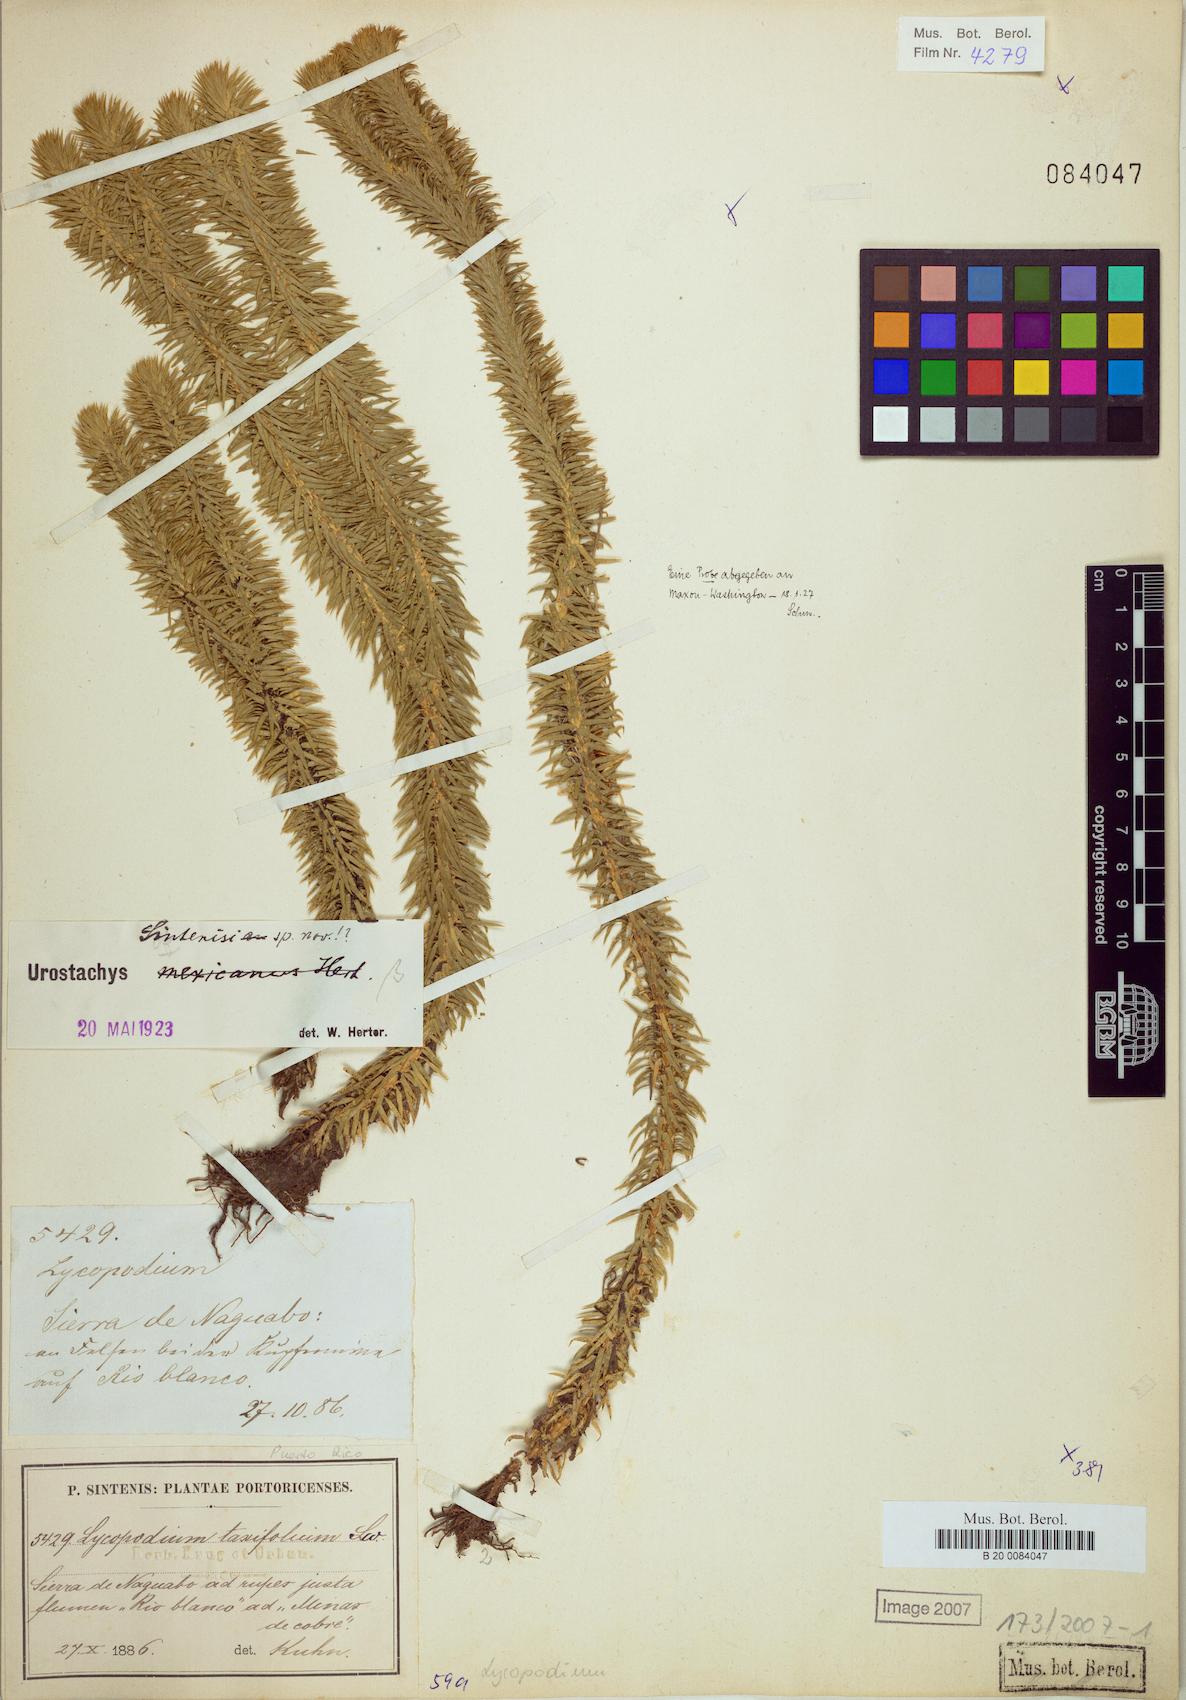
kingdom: Plantae
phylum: Tracheophyta
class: Lycopodiopsida
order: Lycopodiales
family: Lycopodiaceae
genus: Phlegmariurus
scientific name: Phlegmariurus sintenisii
